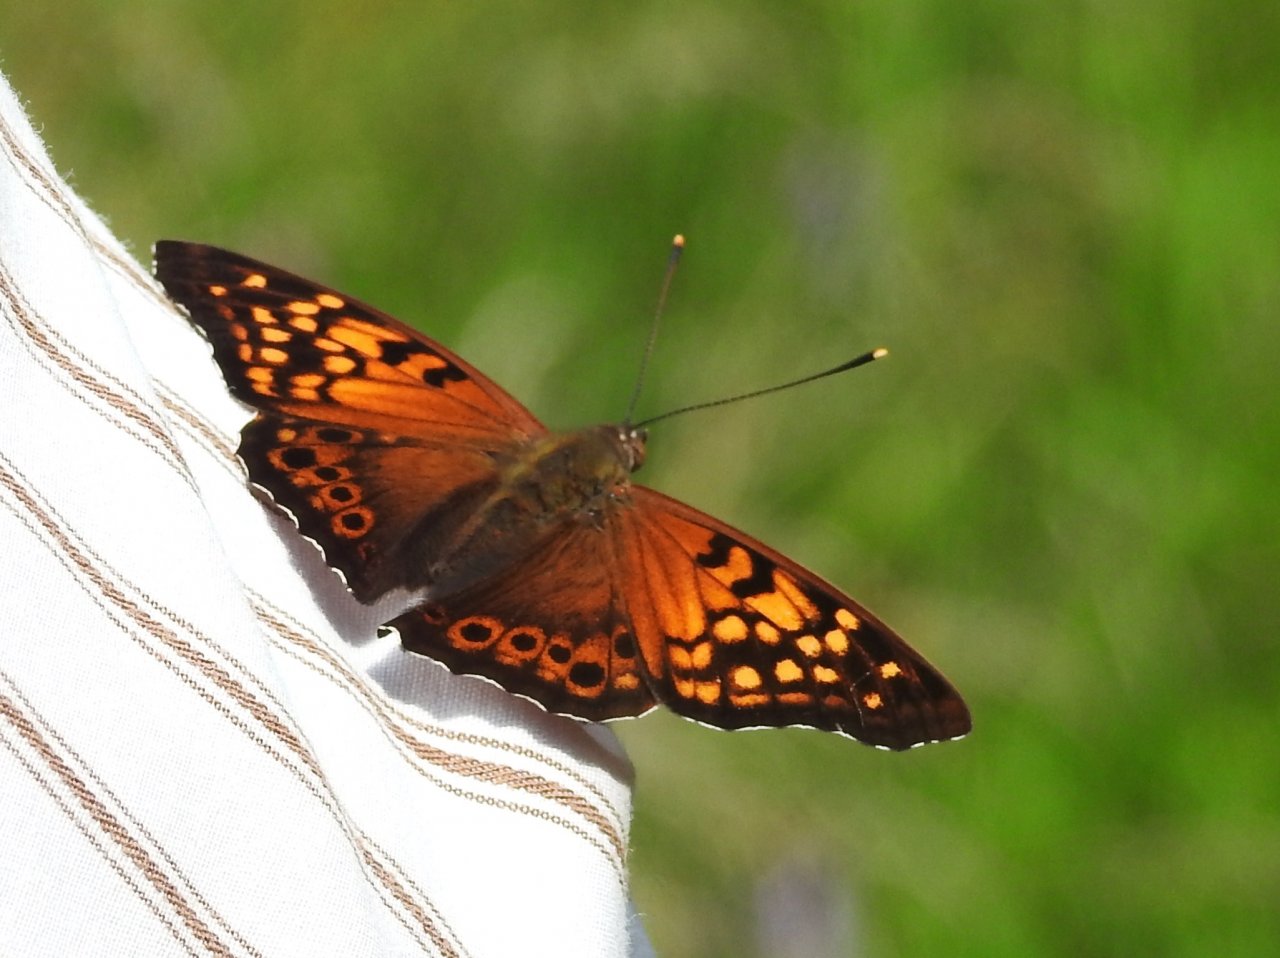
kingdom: Animalia
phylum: Arthropoda
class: Insecta
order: Lepidoptera
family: Nymphalidae
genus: Asterocampa
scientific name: Asterocampa clyton
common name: Tawny Emperor
